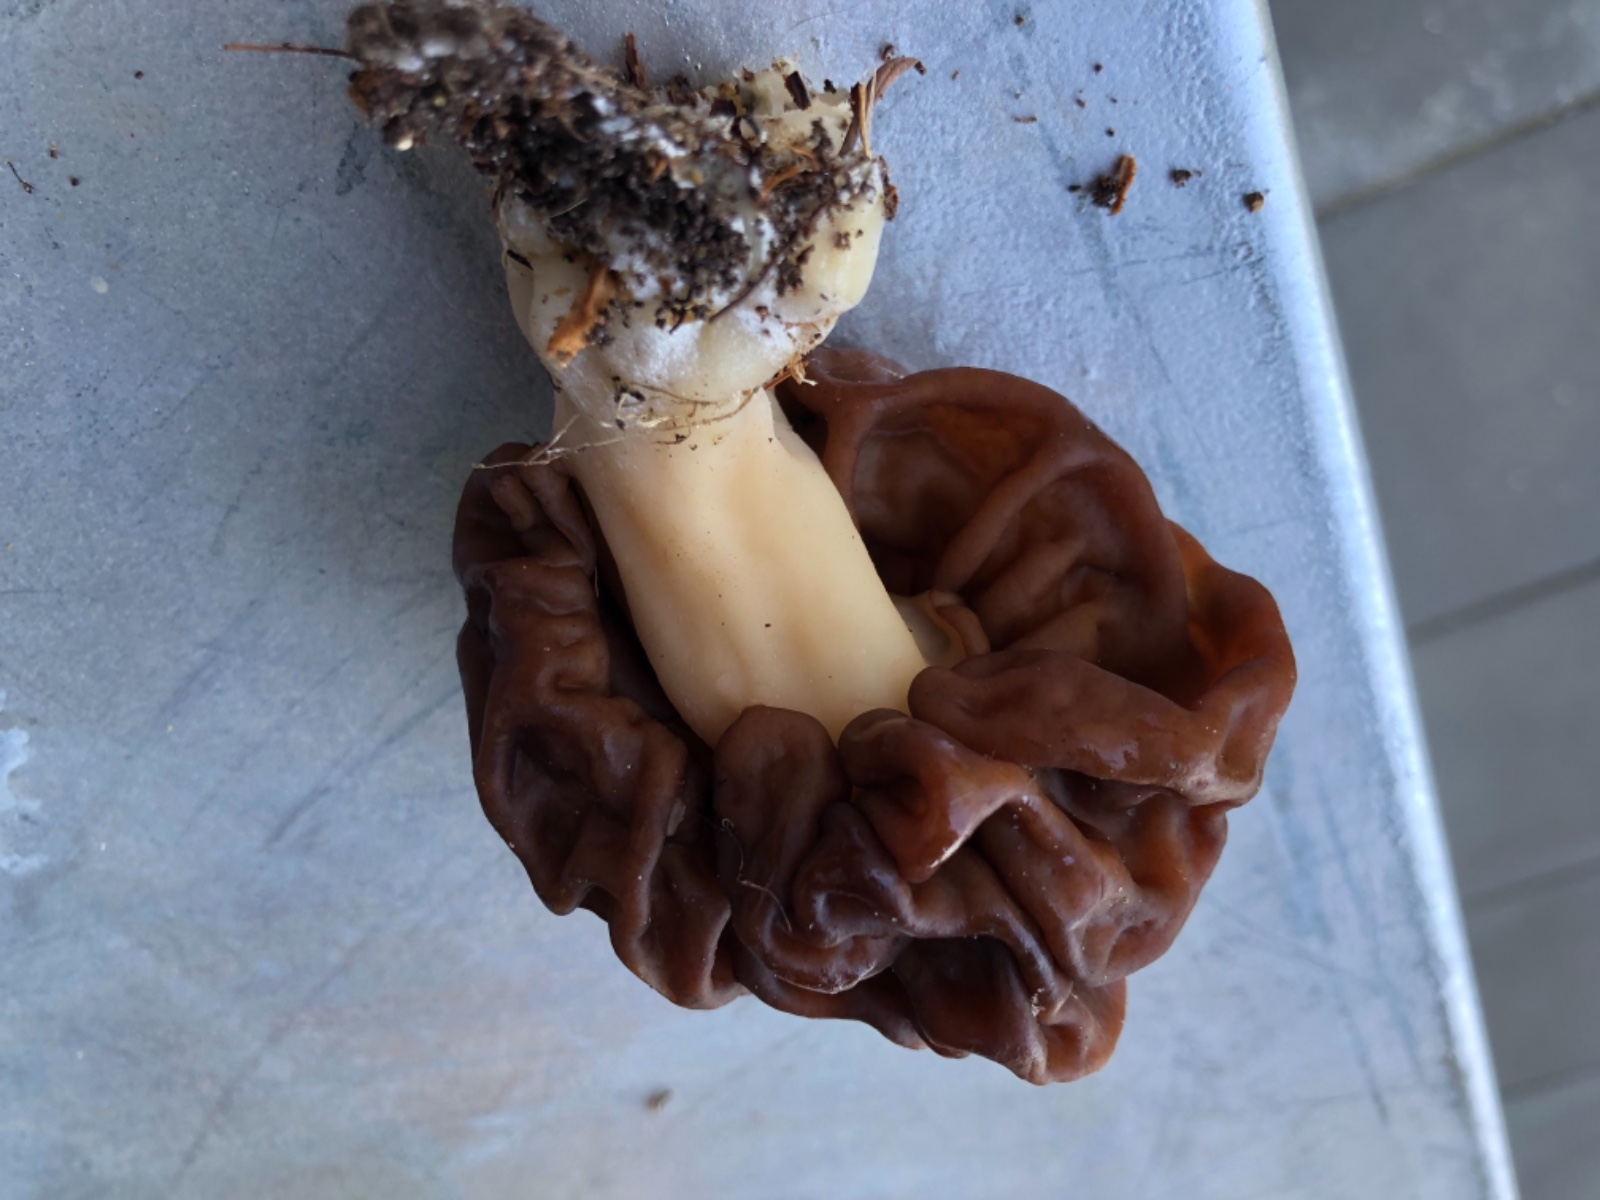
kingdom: Fungi
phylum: Ascomycota
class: Pezizomycetes
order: Pezizales
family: Discinaceae
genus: Gyromitra
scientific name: Gyromitra
